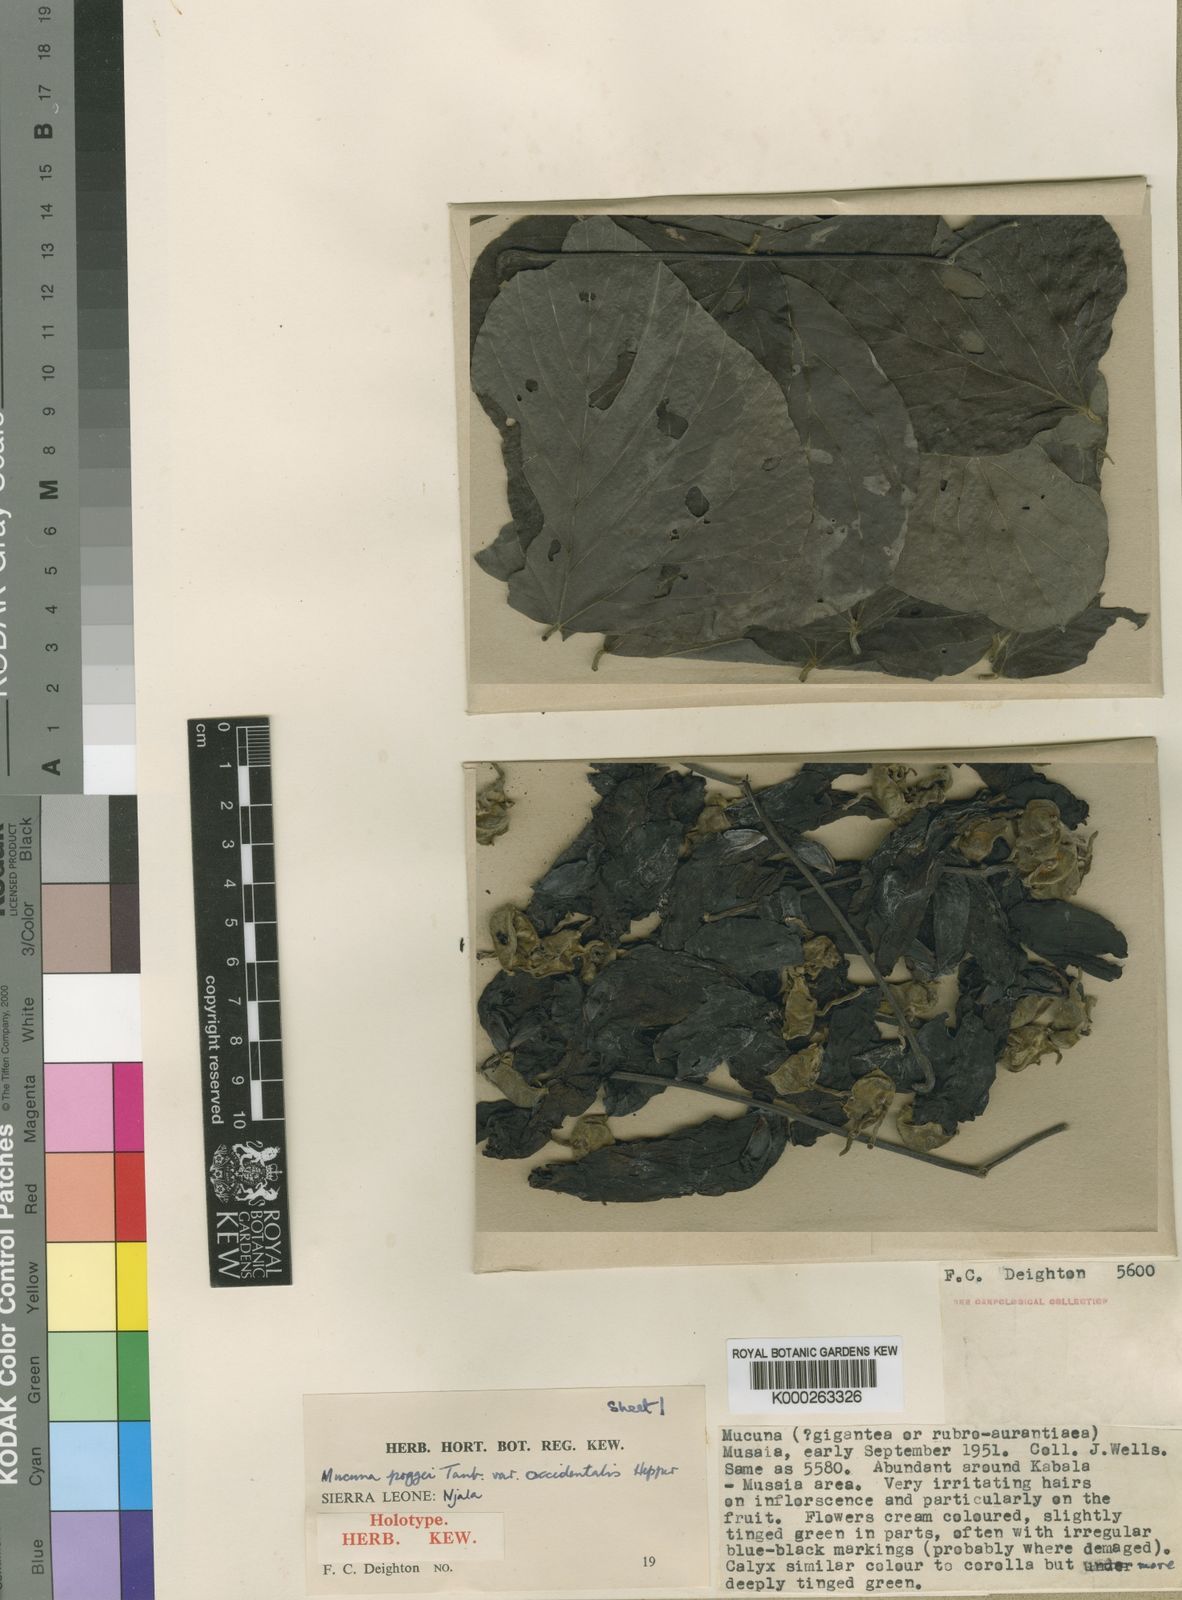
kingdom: Plantae
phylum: Tracheophyta
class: Magnoliopsida
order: Fabales
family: Fabaceae
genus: Mucuna
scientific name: Mucuna occidentalis
